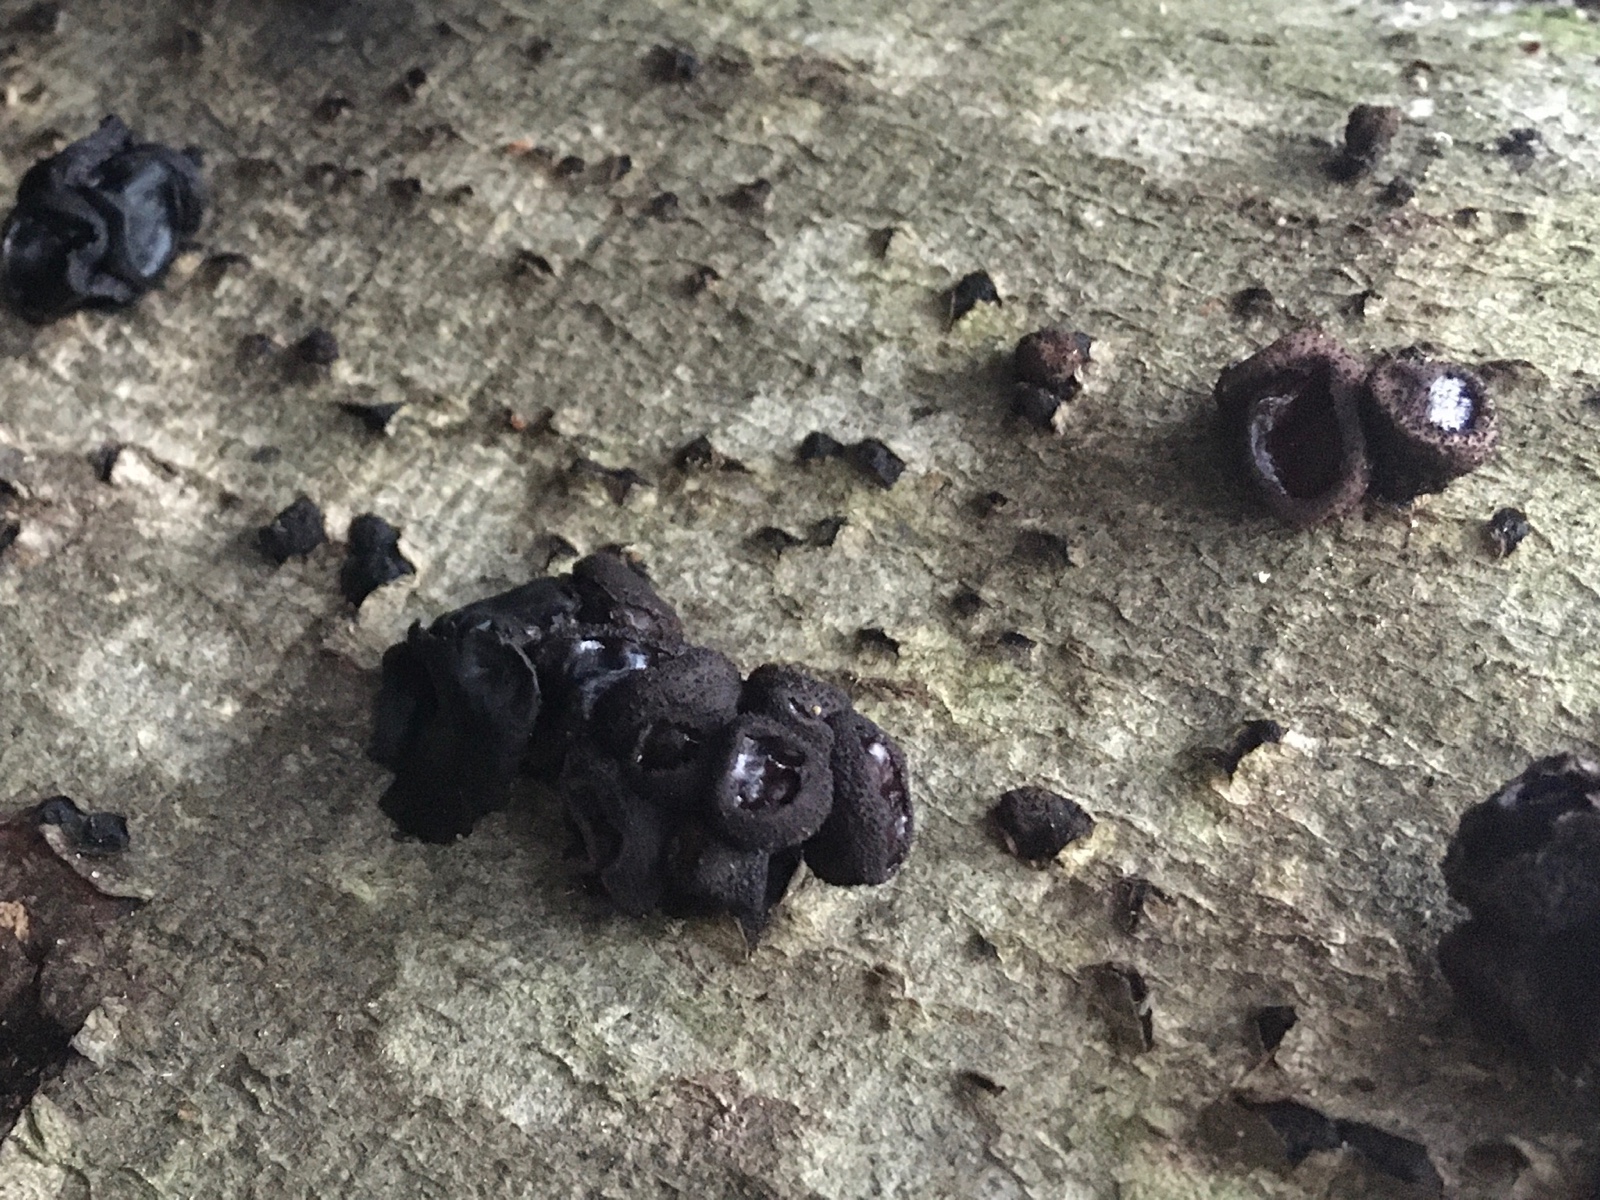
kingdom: Fungi
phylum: Ascomycota
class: Leotiomycetes
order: Phacidiales
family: Phacidiaceae
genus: Bulgaria
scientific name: Bulgaria inquinans
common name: afsmittende topsvamp
